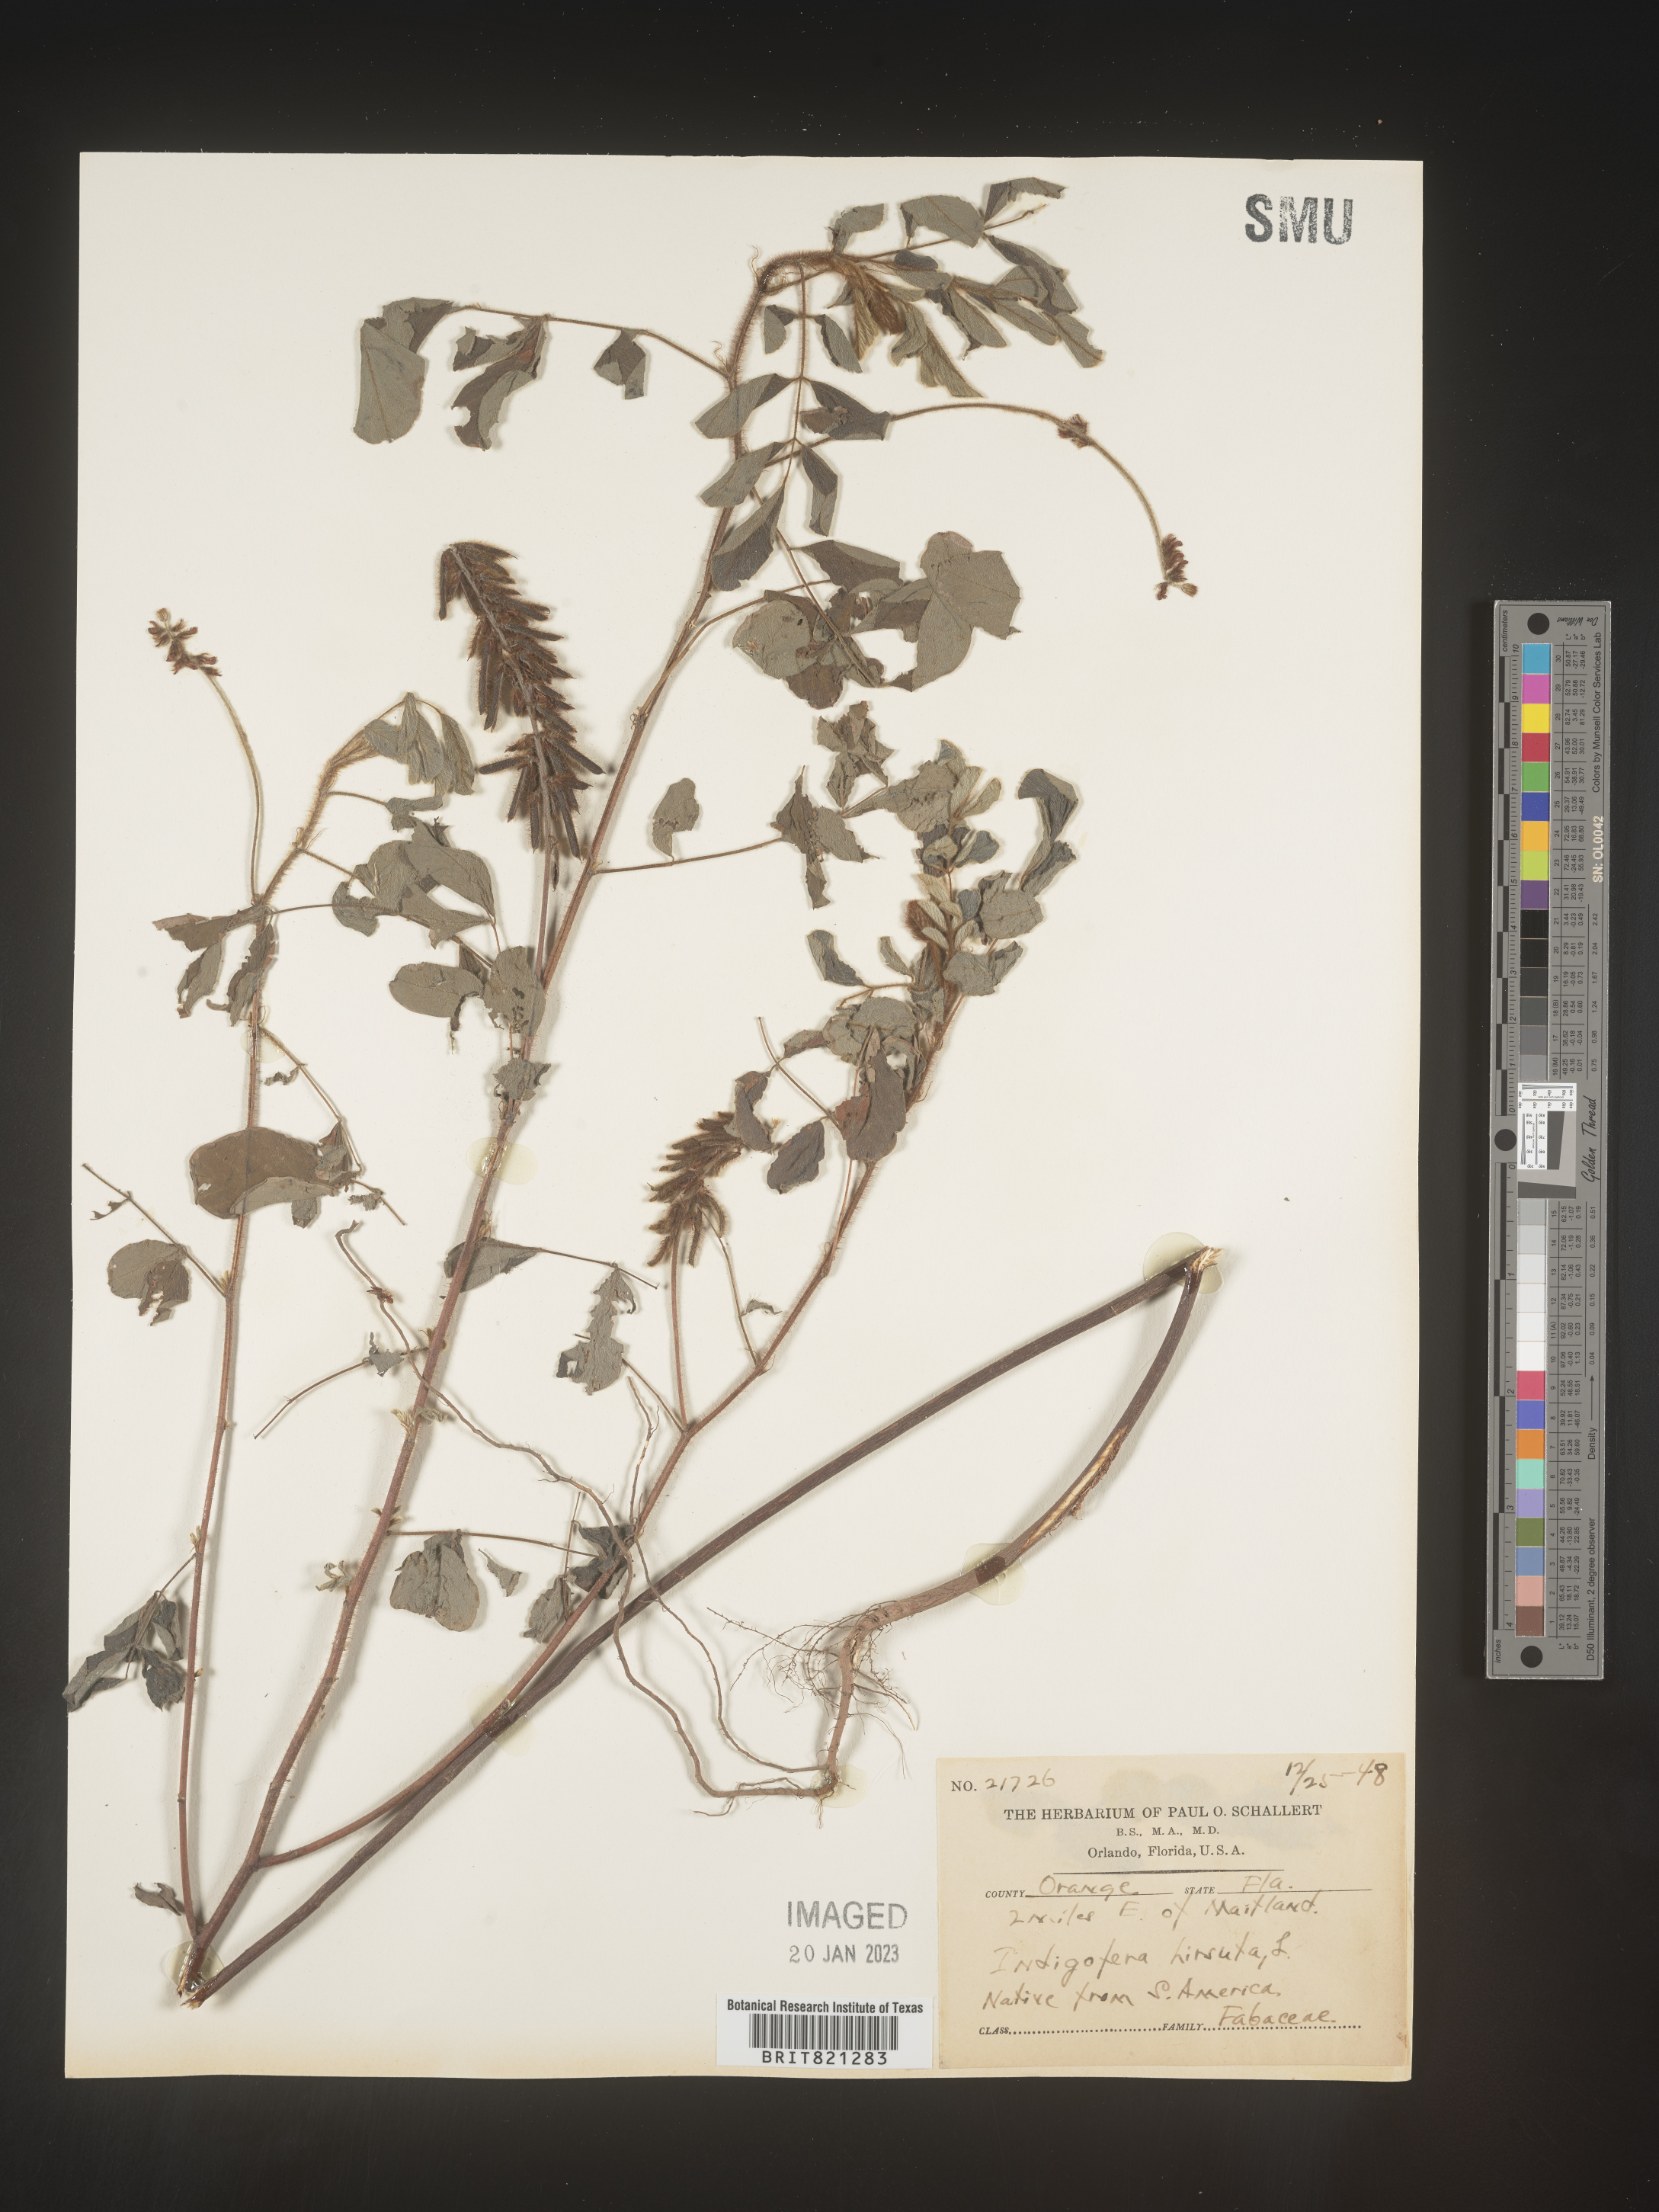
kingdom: Plantae
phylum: Tracheophyta
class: Magnoliopsida
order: Fabales
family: Fabaceae
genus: Indigofera
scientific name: Indigofera
